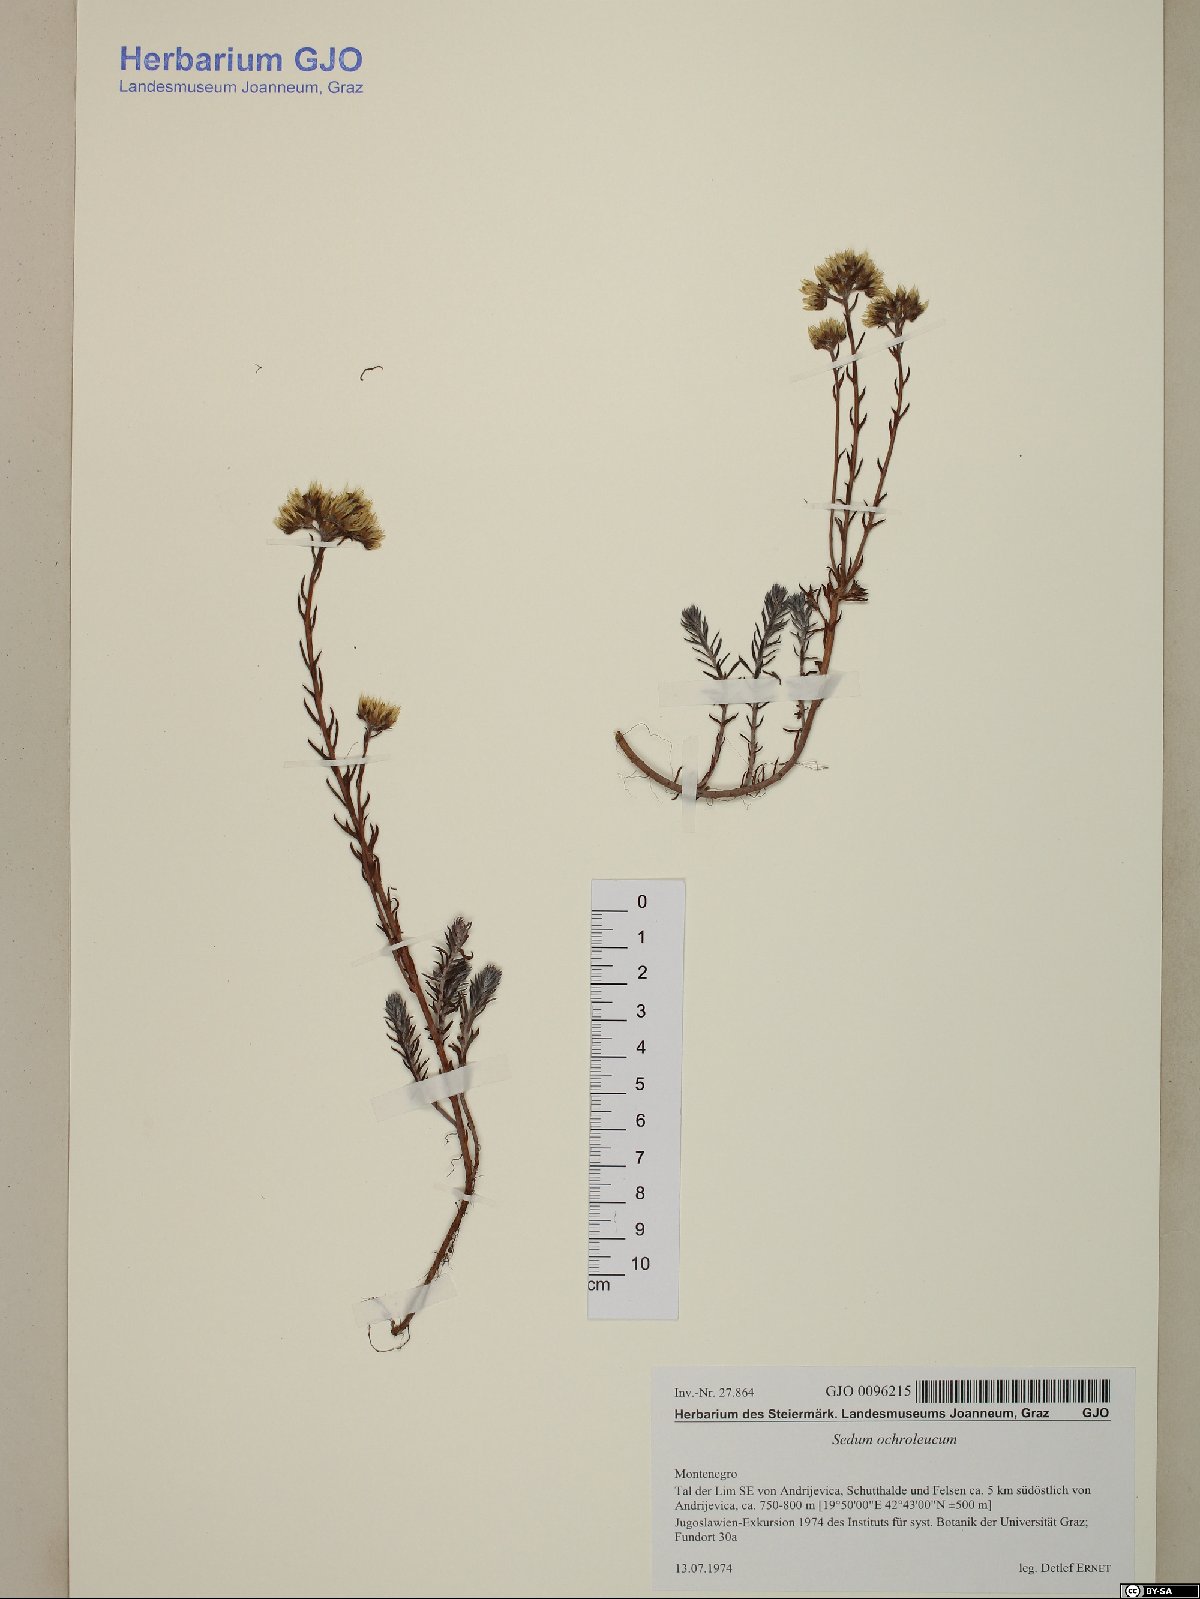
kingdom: Plantae
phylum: Tracheophyta
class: Magnoliopsida
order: Saxifragales
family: Crassulaceae
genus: Petrosedum
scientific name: Petrosedum ochroleucum
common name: European stonecrop
